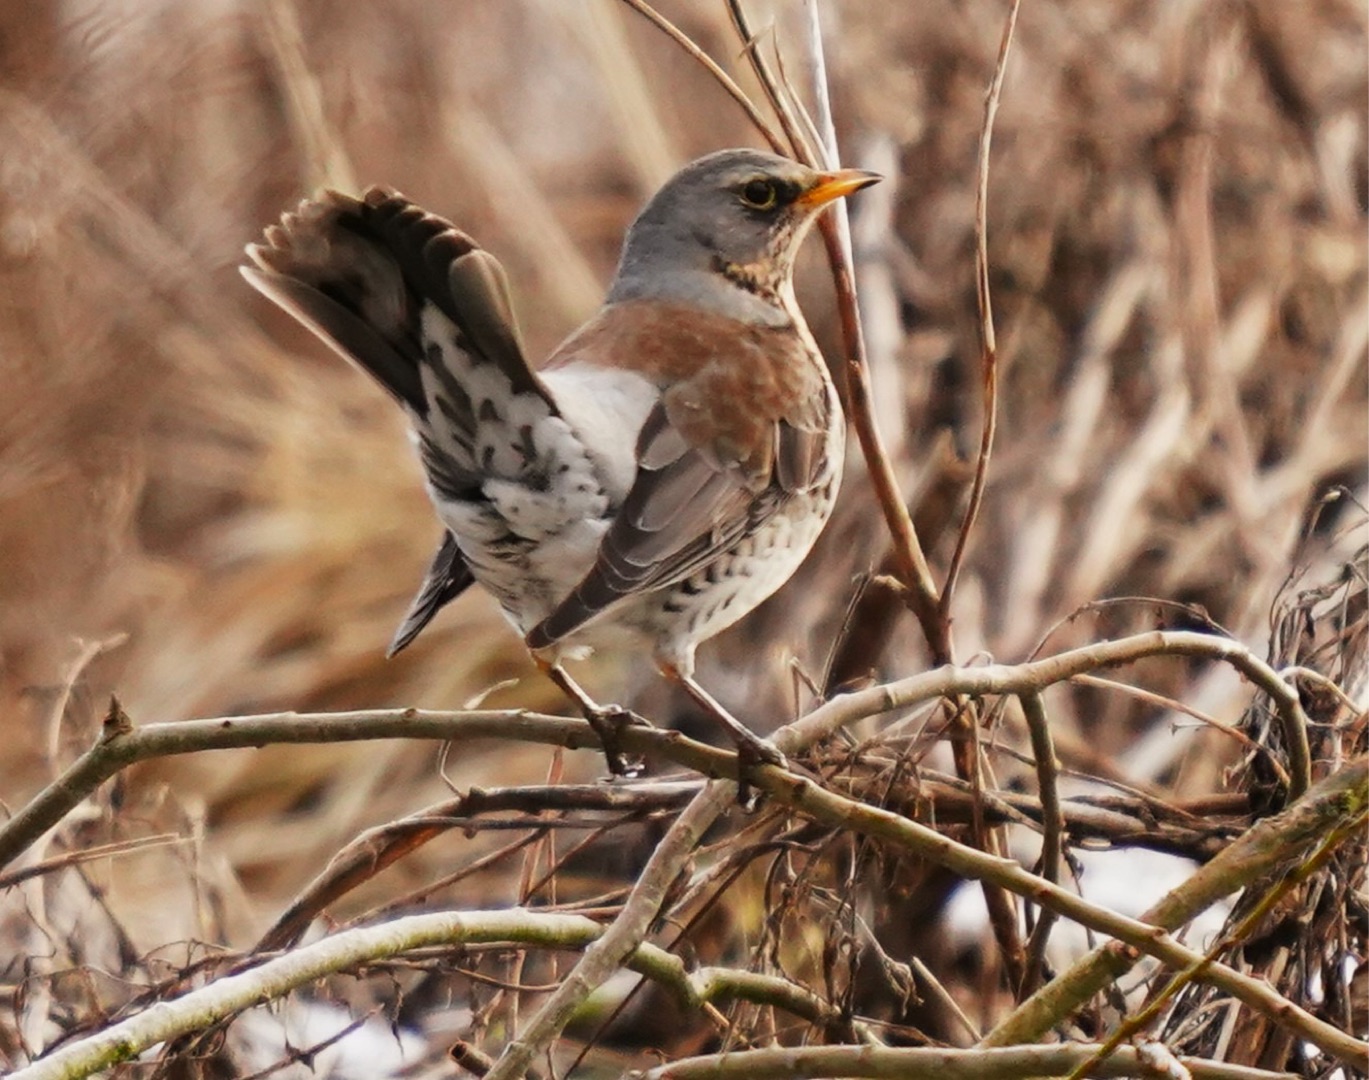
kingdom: Animalia
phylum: Chordata
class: Aves
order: Passeriformes
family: Turdidae
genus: Turdus
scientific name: Turdus pilaris
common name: Sjagger
